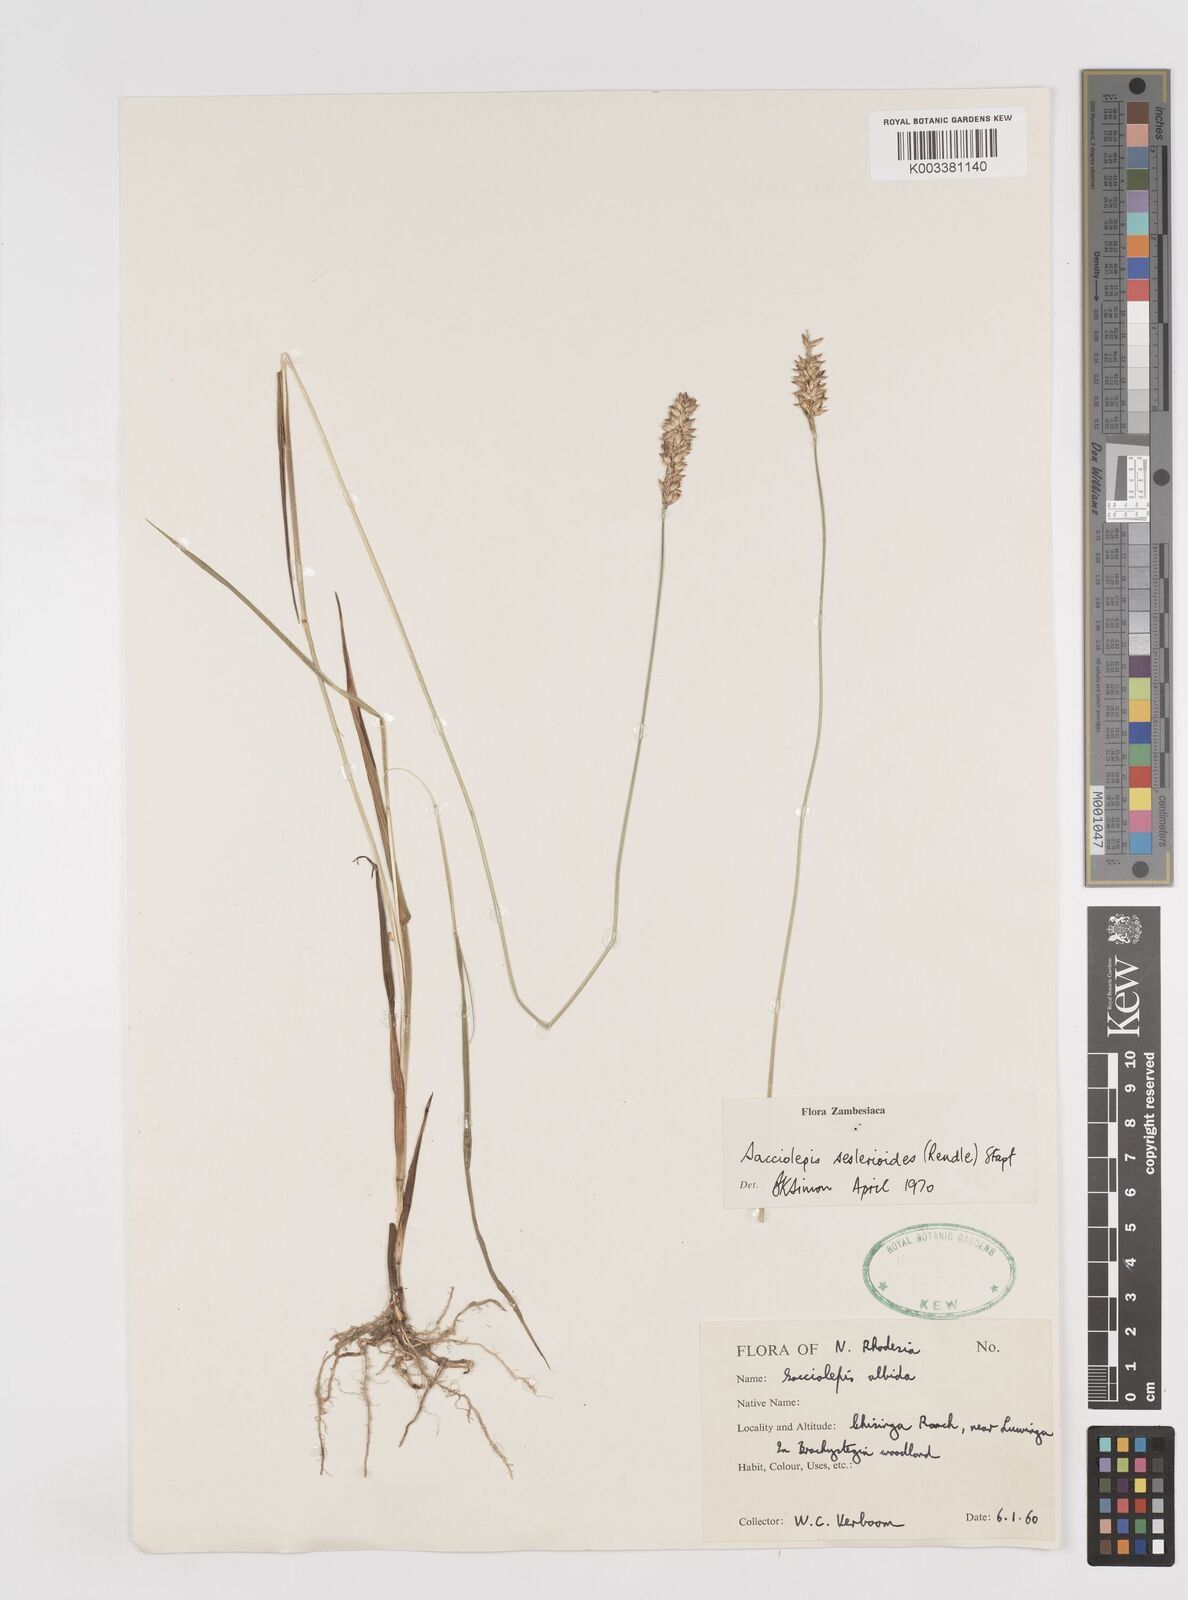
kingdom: Plantae
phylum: Tracheophyta
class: Liliopsida
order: Poales
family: Poaceae
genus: Sacciolepis
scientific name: Sacciolepis seslerioides
